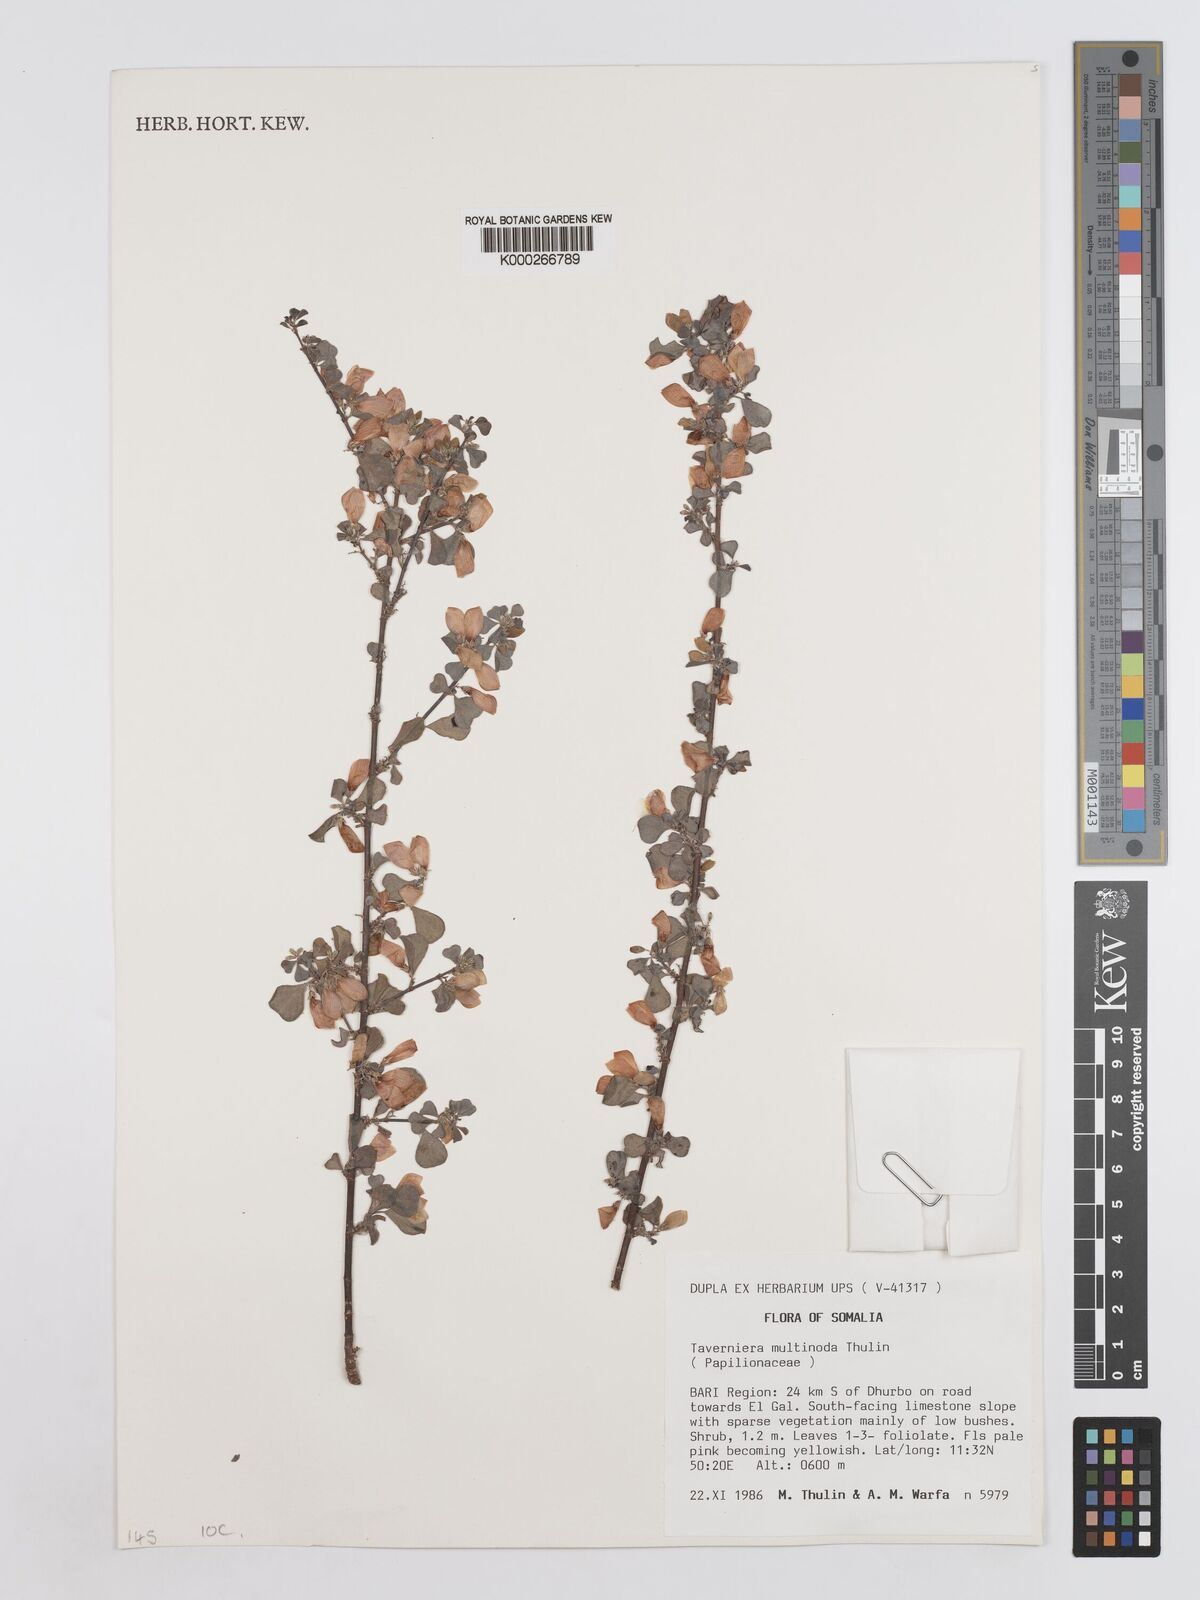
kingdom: Plantae
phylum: Tracheophyta
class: Magnoliopsida
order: Fabales
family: Fabaceae
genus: Taverniera
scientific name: Taverniera multinoda
